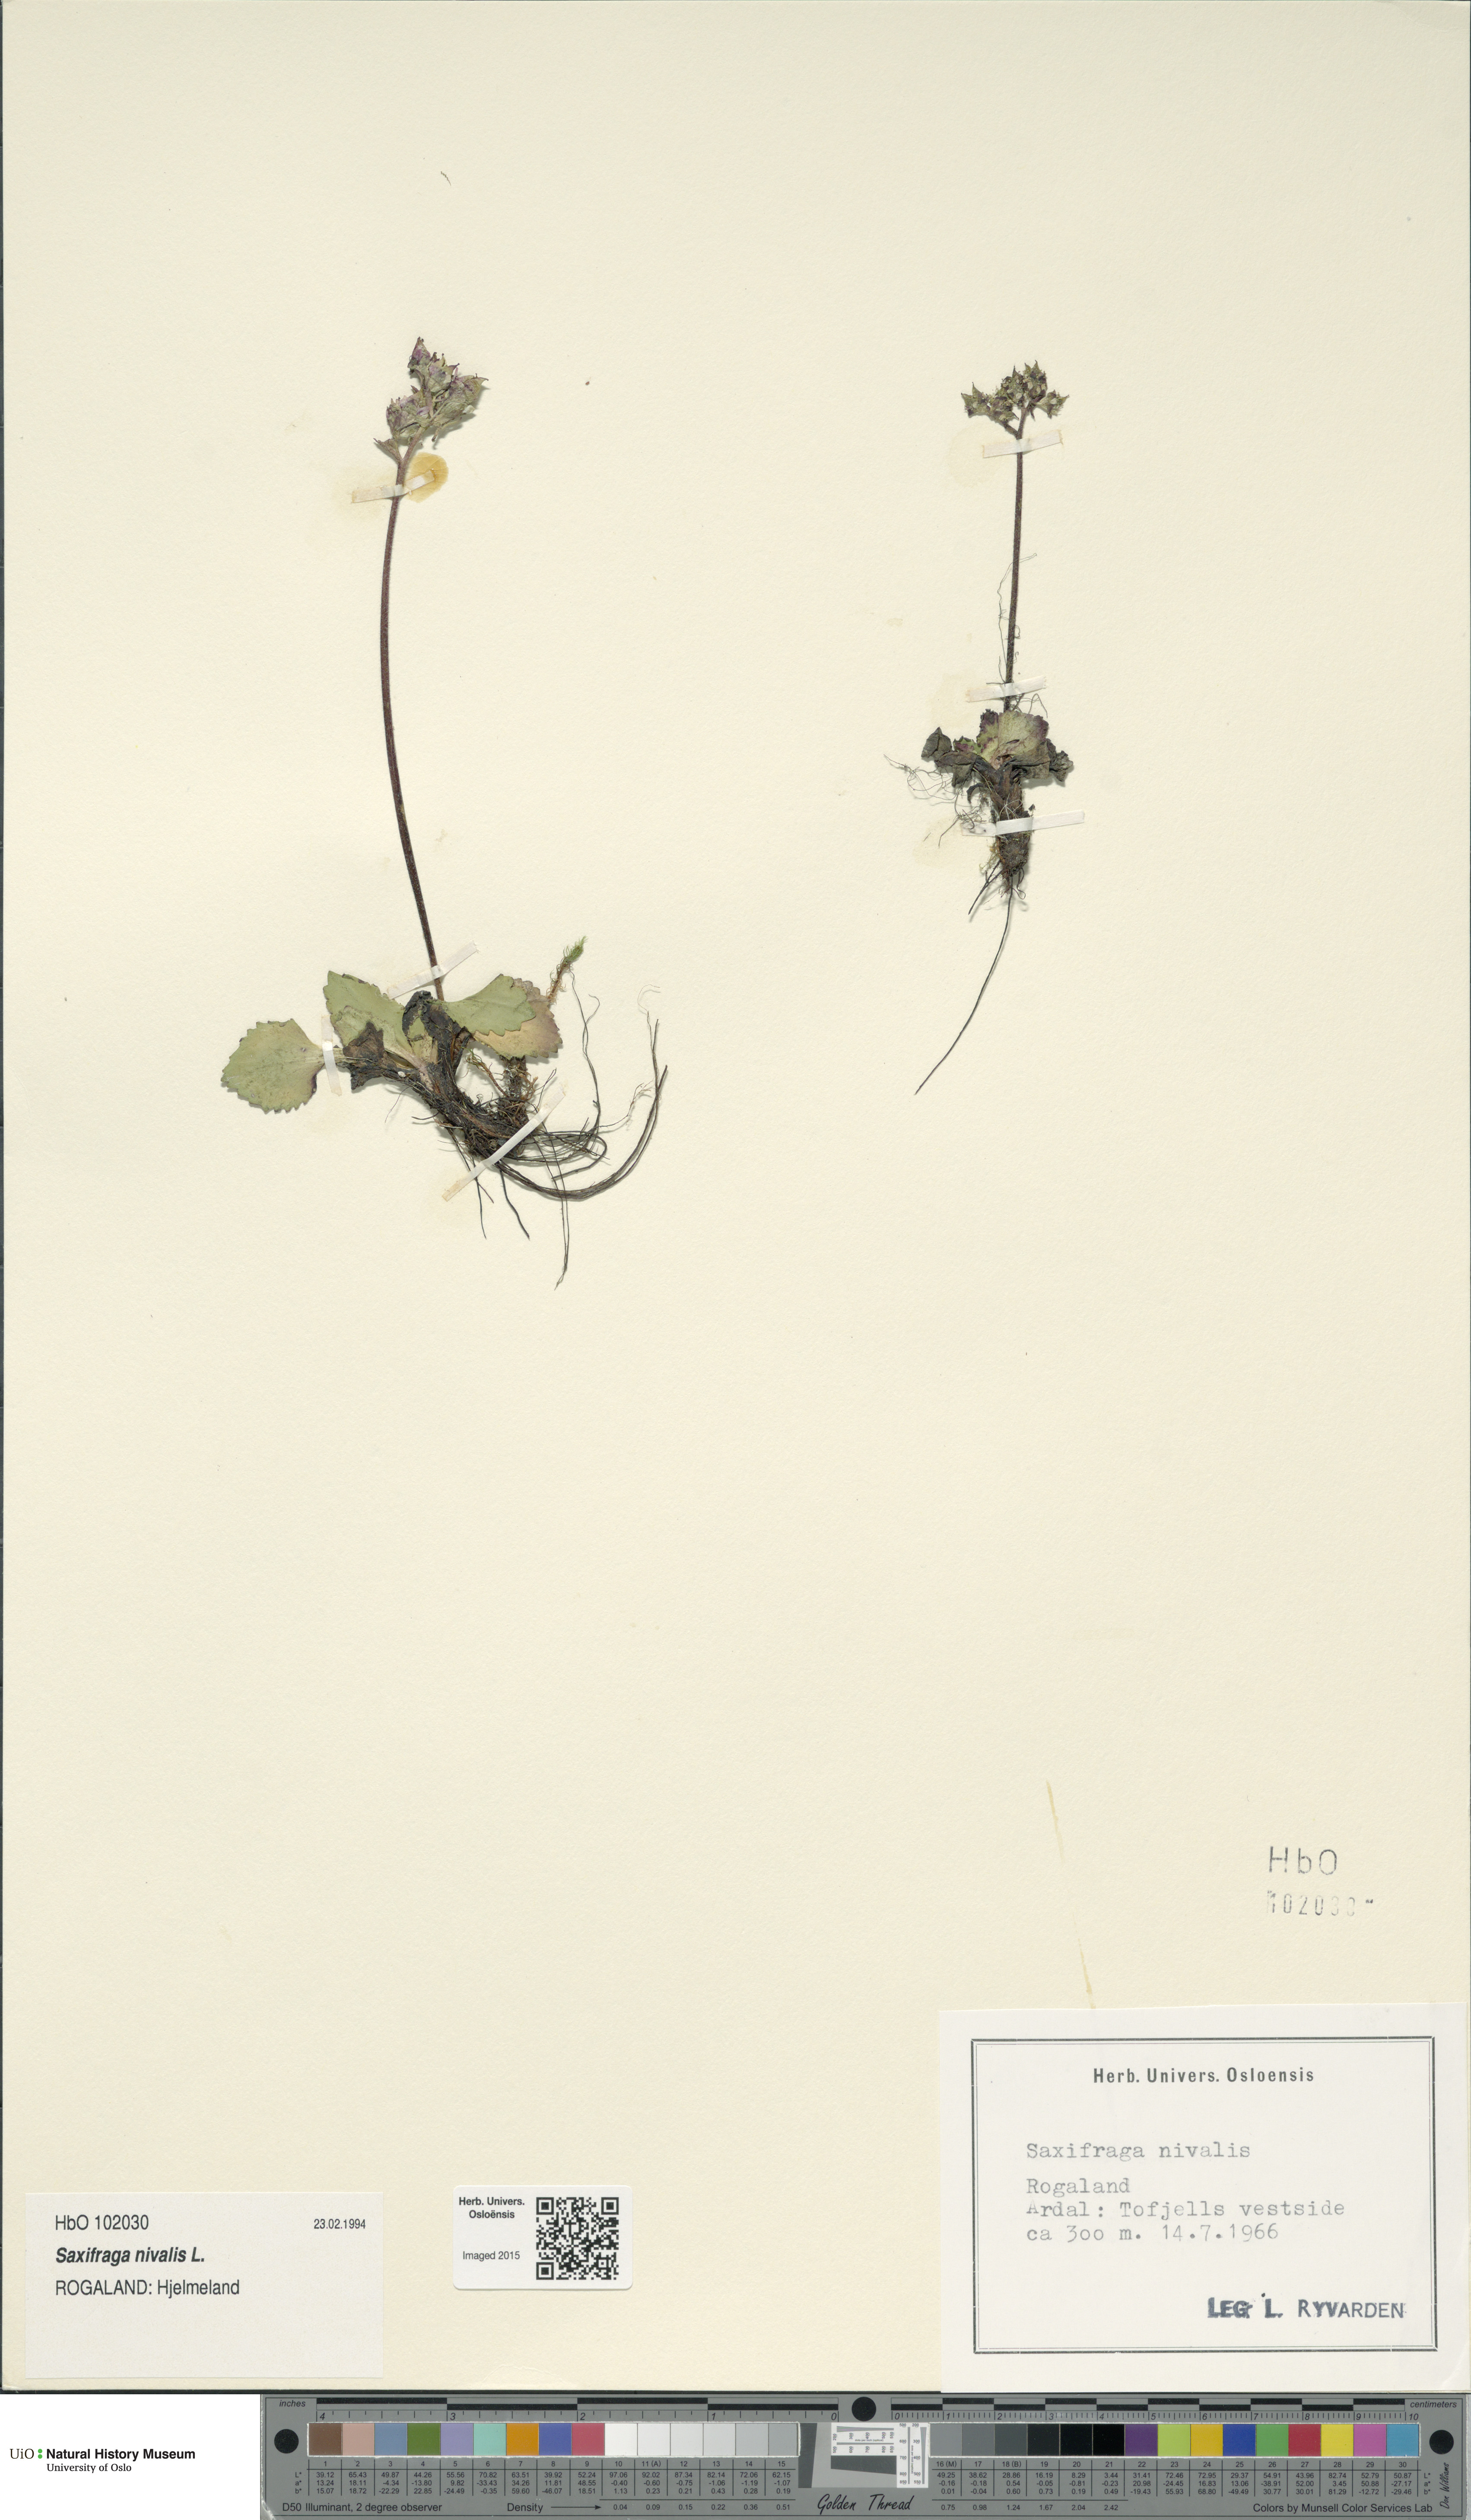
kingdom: Plantae
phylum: Tracheophyta
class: Magnoliopsida
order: Saxifragales
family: Saxifragaceae
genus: Micranthes
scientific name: Micranthes nivalis
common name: Alpine saxifrage
